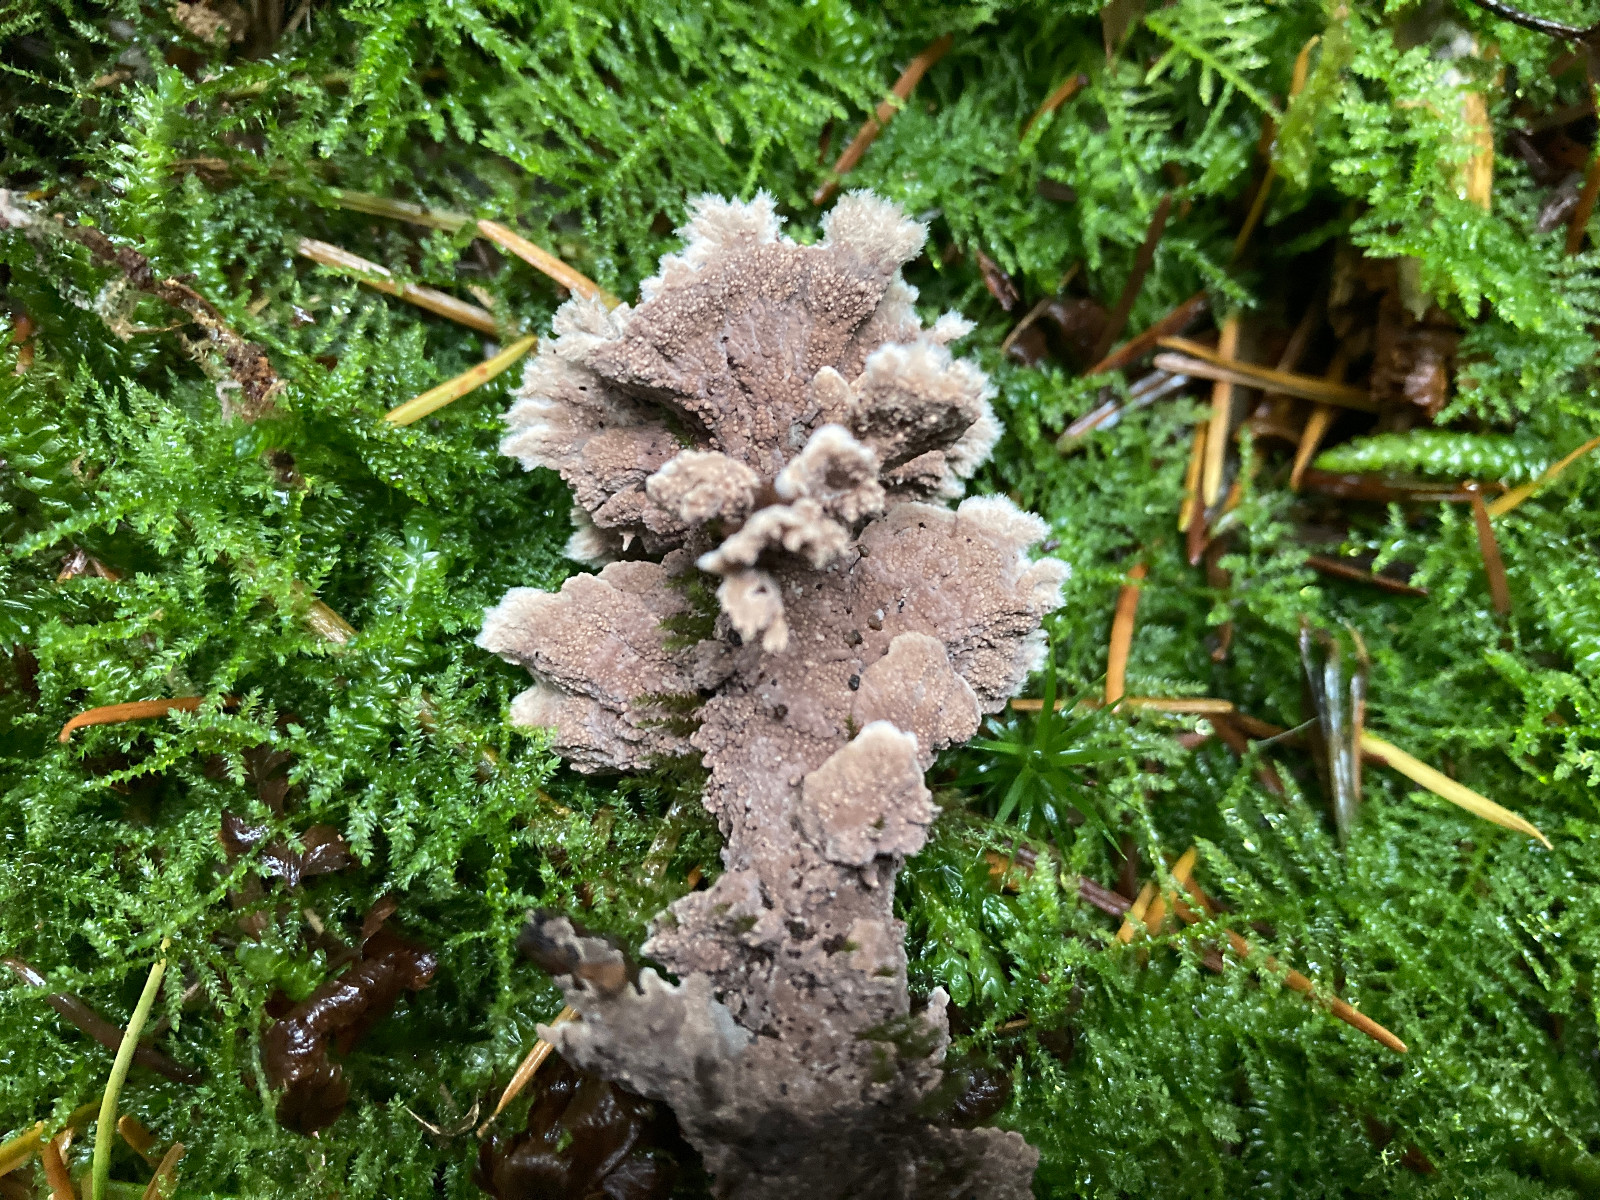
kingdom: Fungi
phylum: Basidiomycota
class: Agaricomycetes
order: Thelephorales
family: Thelephoraceae
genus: Thelephora
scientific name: Thelephora terrestris
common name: fliget frynsesvamp
